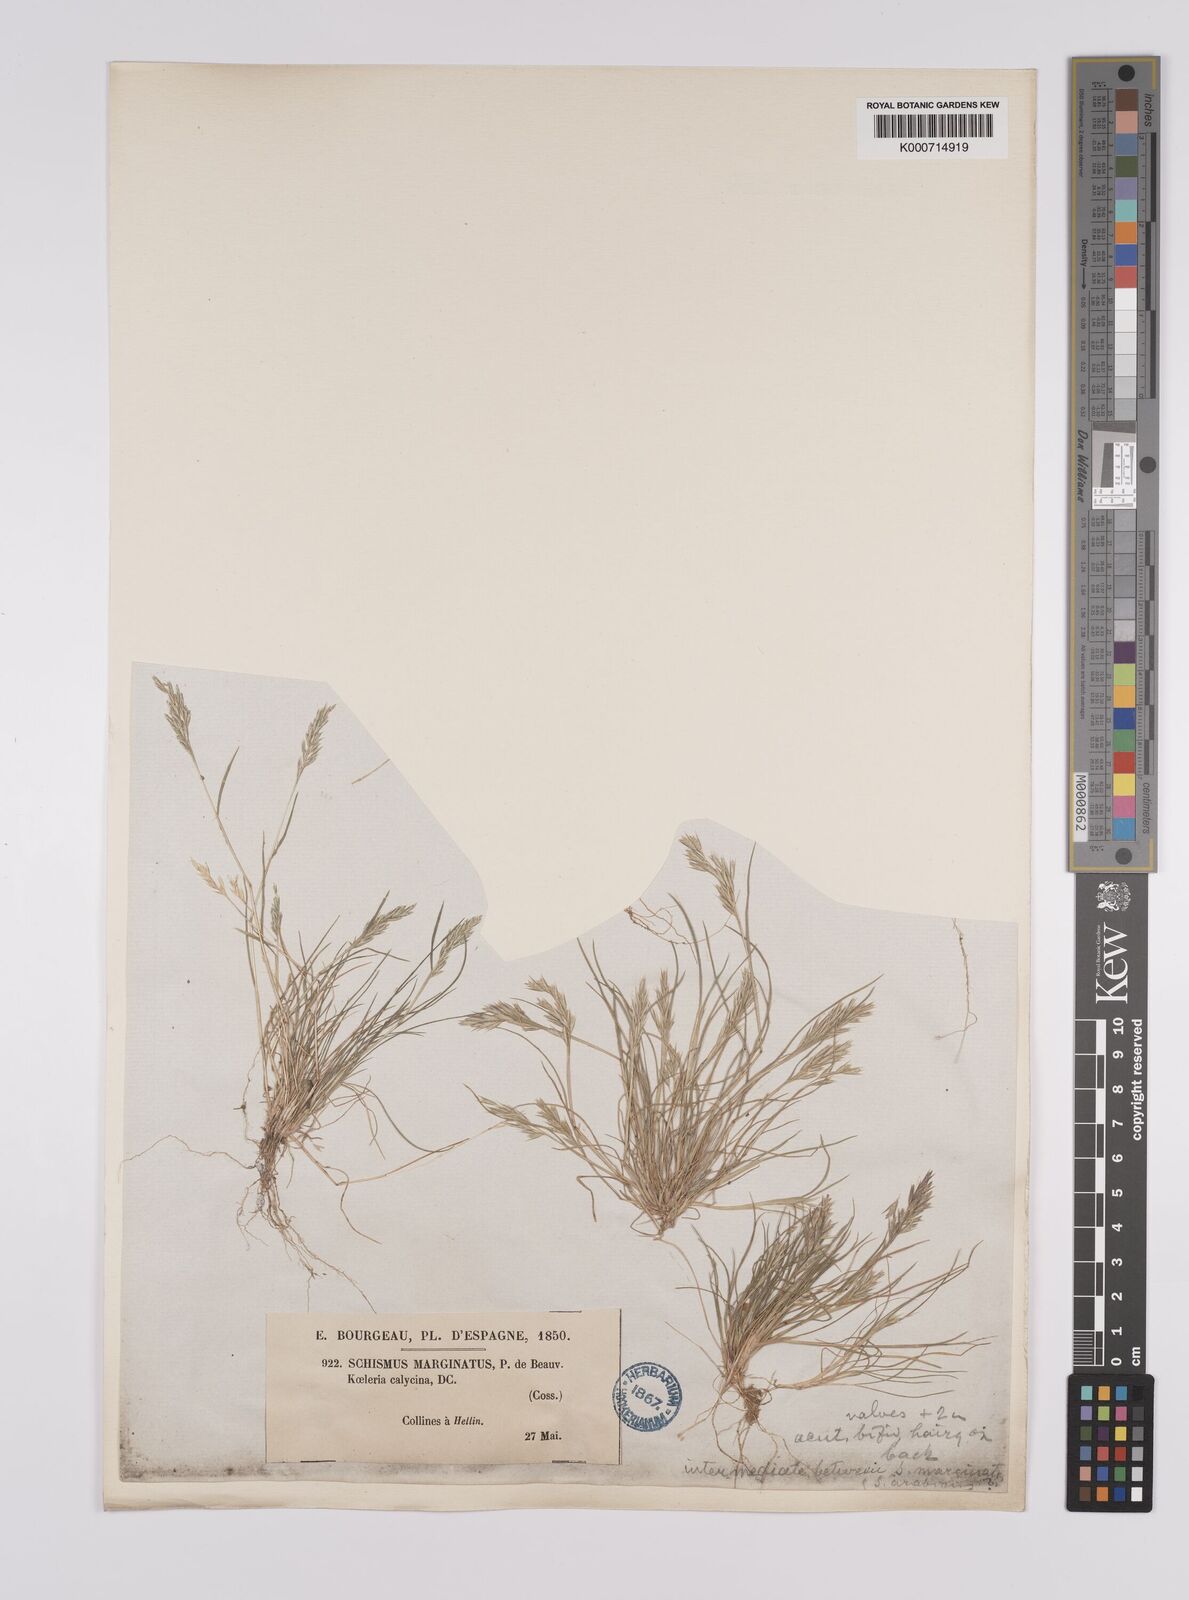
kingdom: Plantae
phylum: Tracheophyta
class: Liliopsida
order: Poales
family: Poaceae
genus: Schismus
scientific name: Schismus barbatus
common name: Kelch-grass
